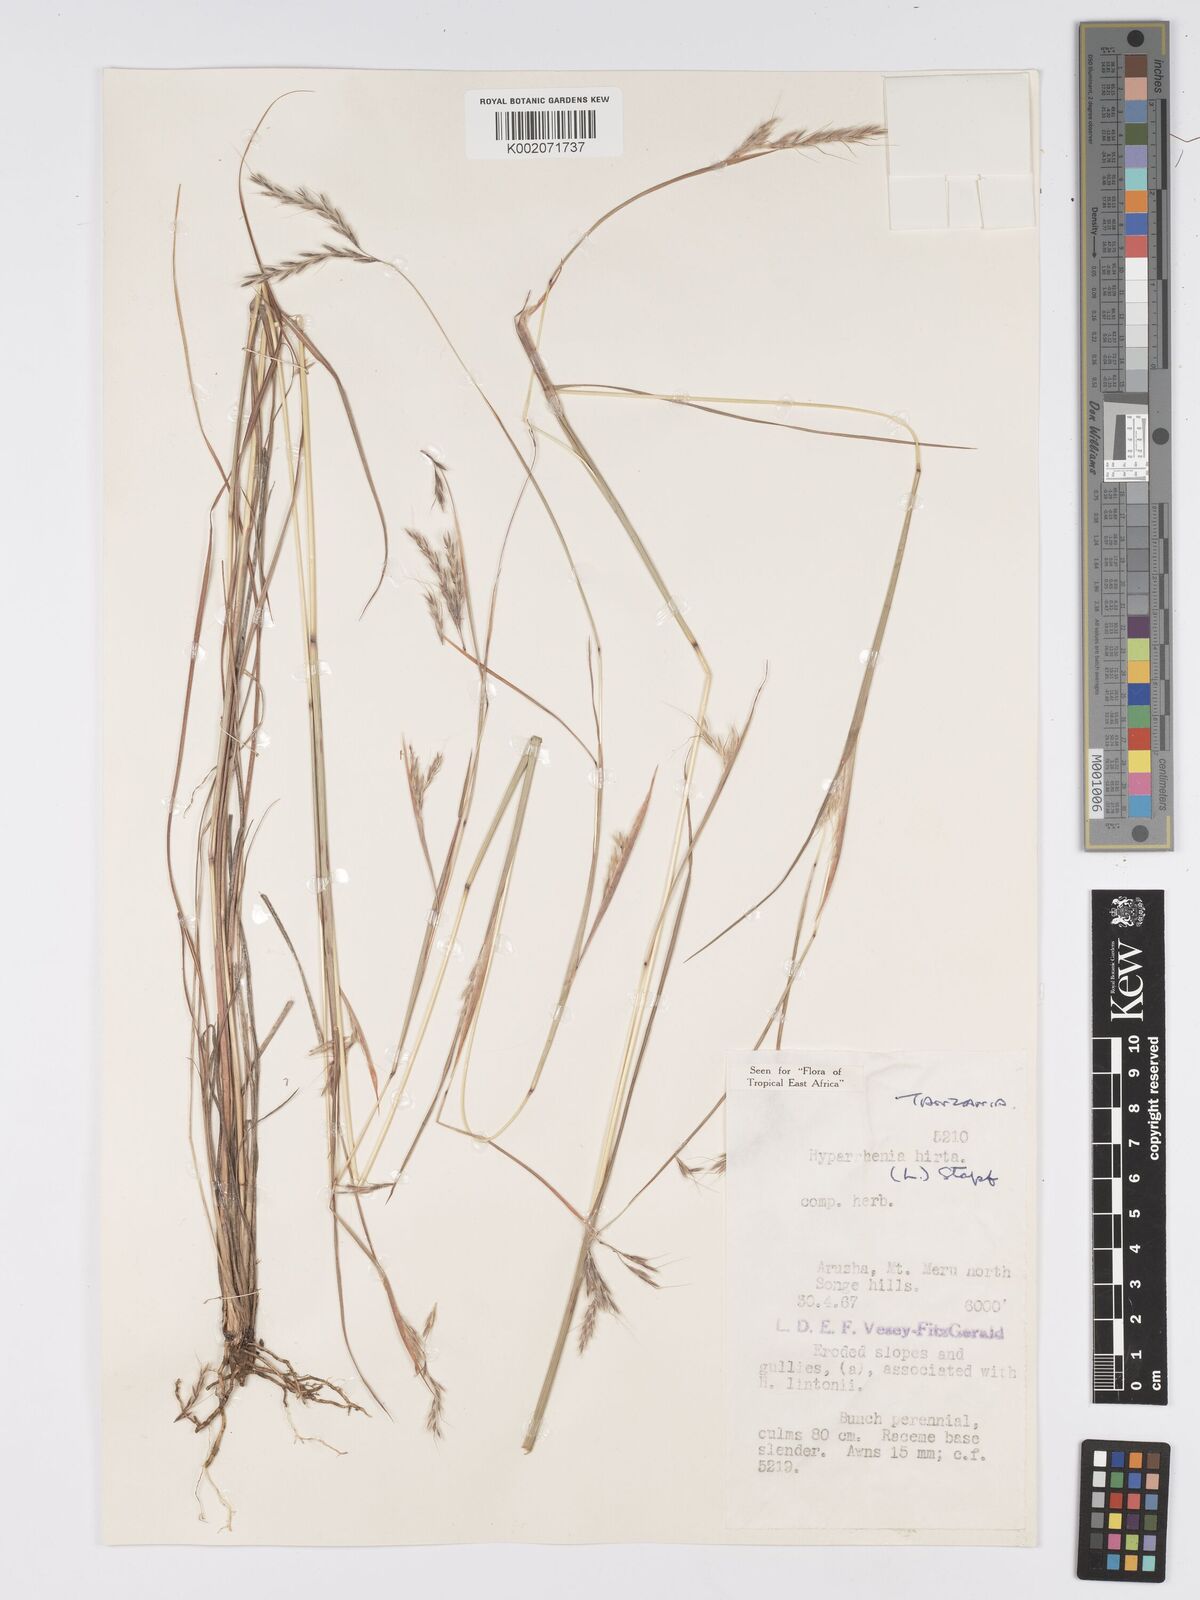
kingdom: Plantae
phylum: Tracheophyta
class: Liliopsida
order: Poales
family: Poaceae
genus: Hyparrhenia
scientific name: Hyparrhenia hirta
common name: Thatching grass
